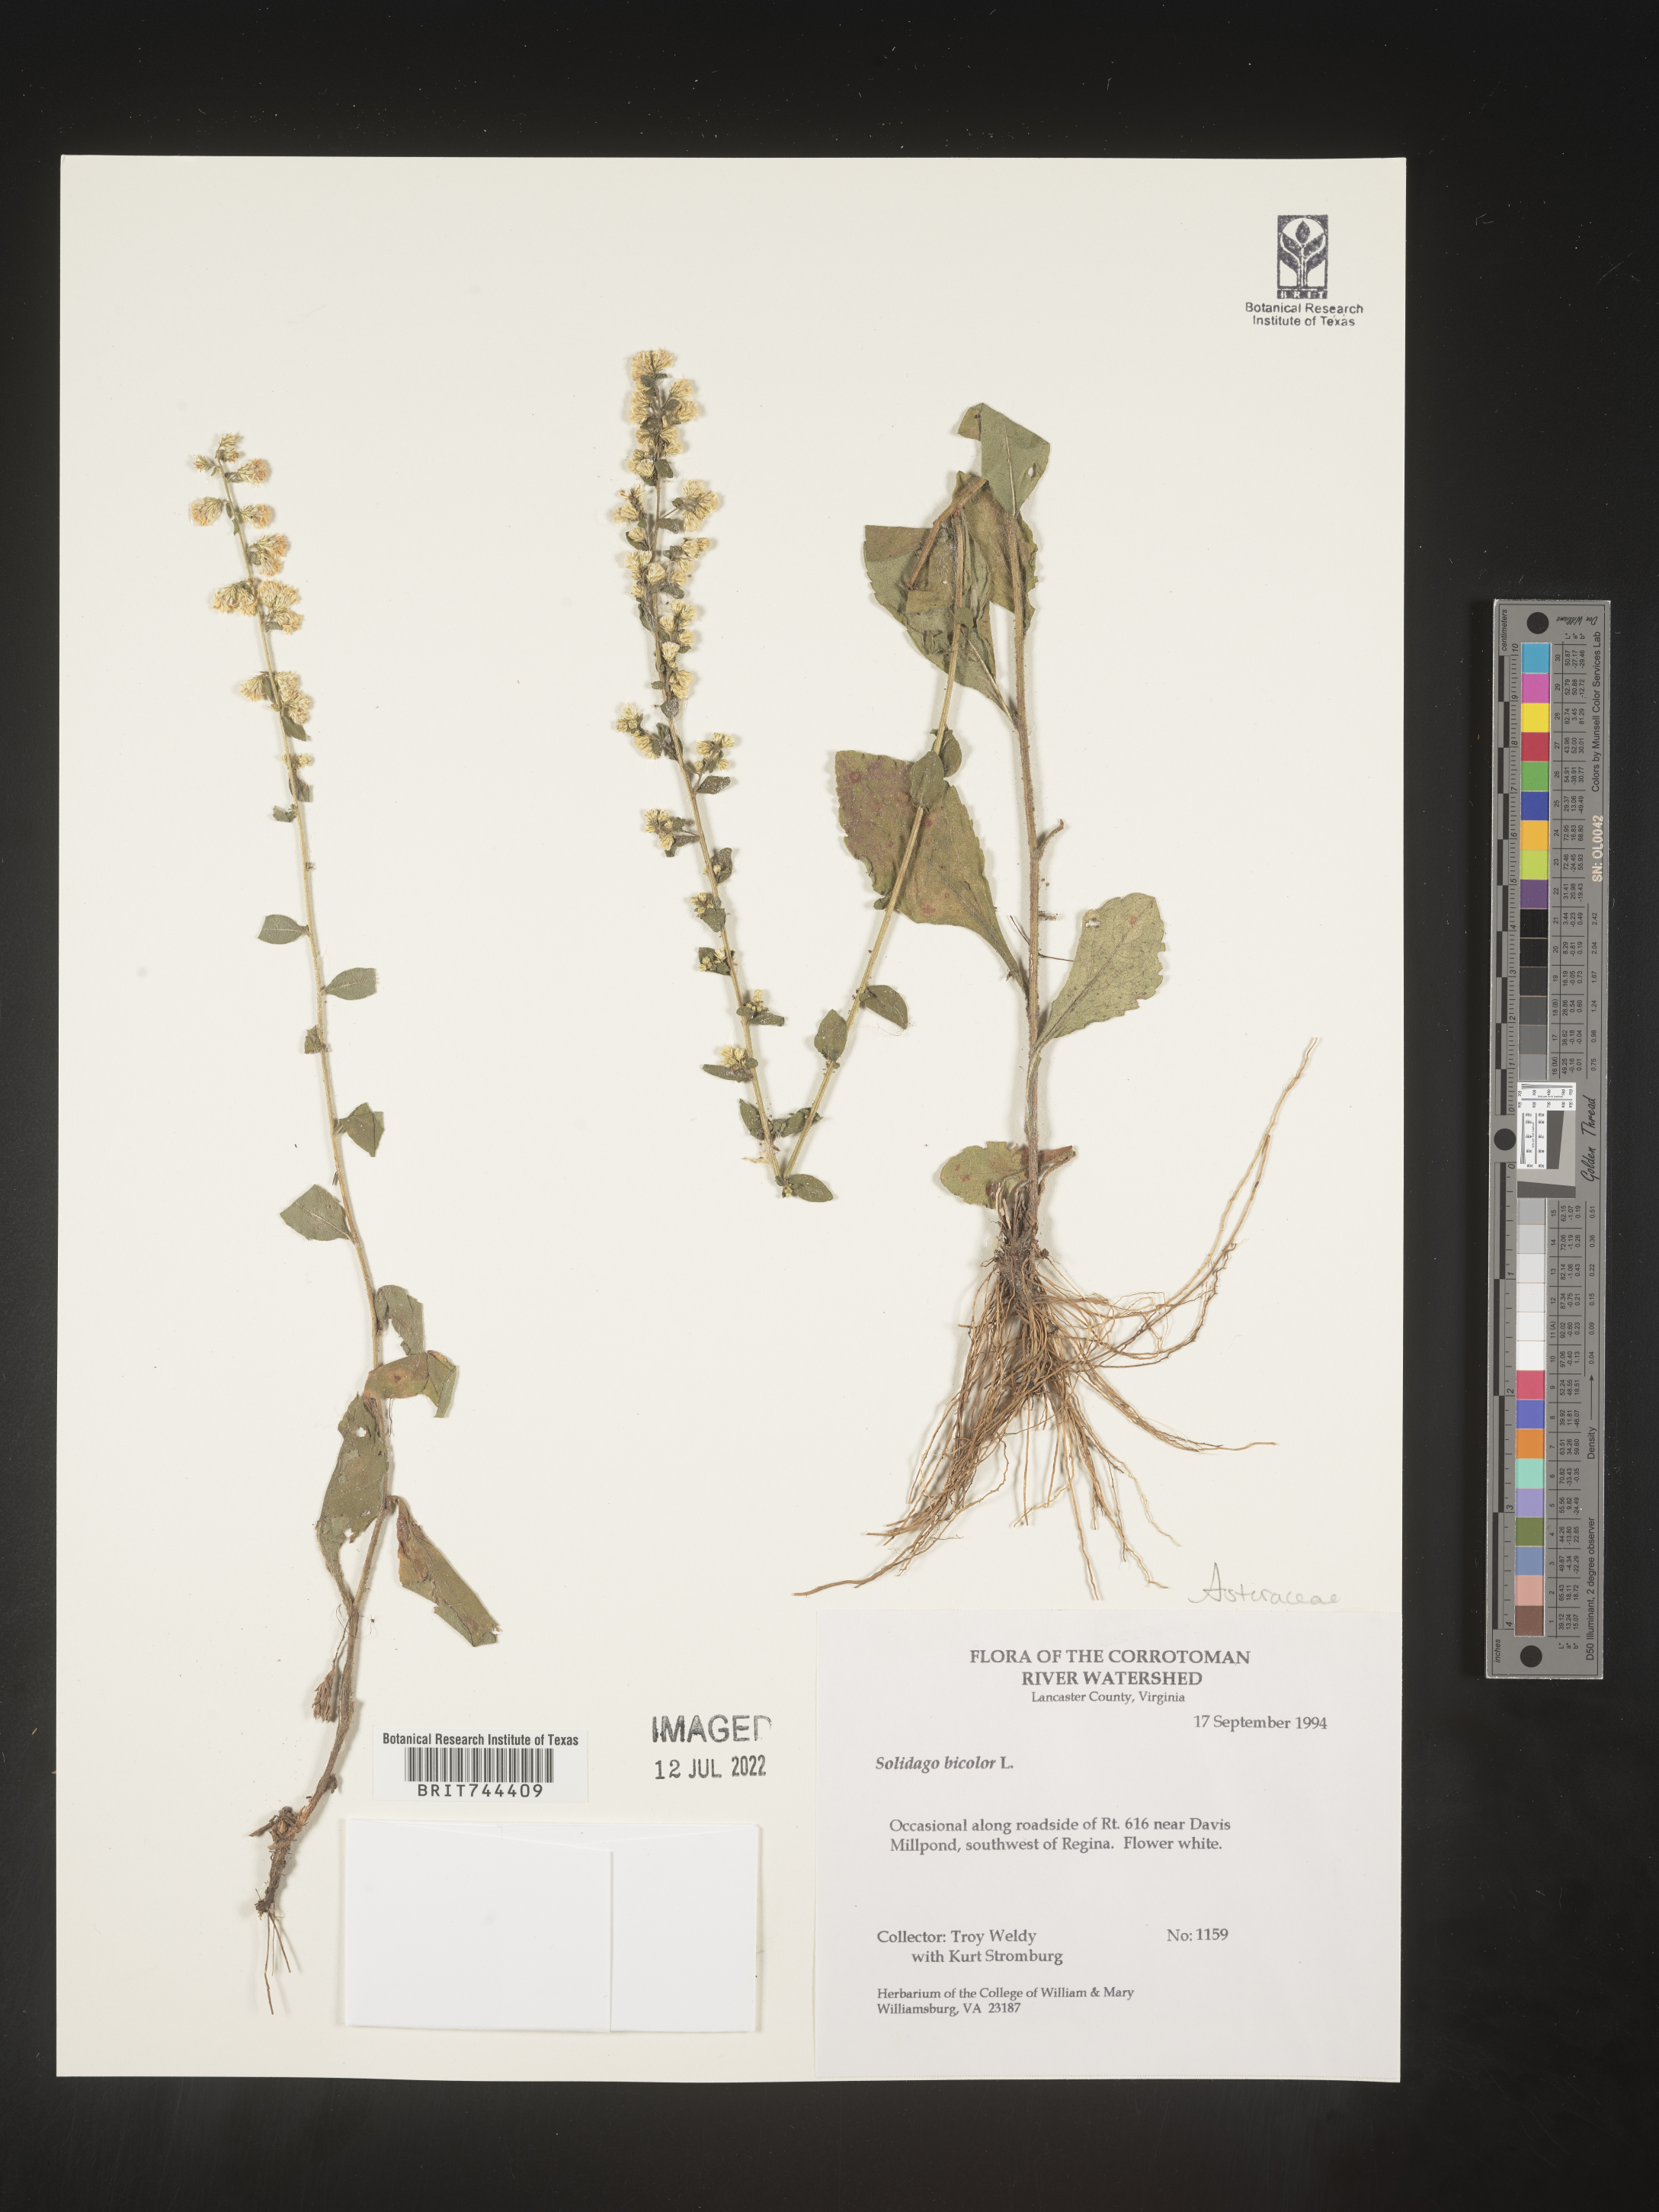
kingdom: Plantae
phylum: Tracheophyta
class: Magnoliopsida
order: Asterales
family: Asteraceae
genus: Solidago
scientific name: Solidago bicolor
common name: Silverrod
